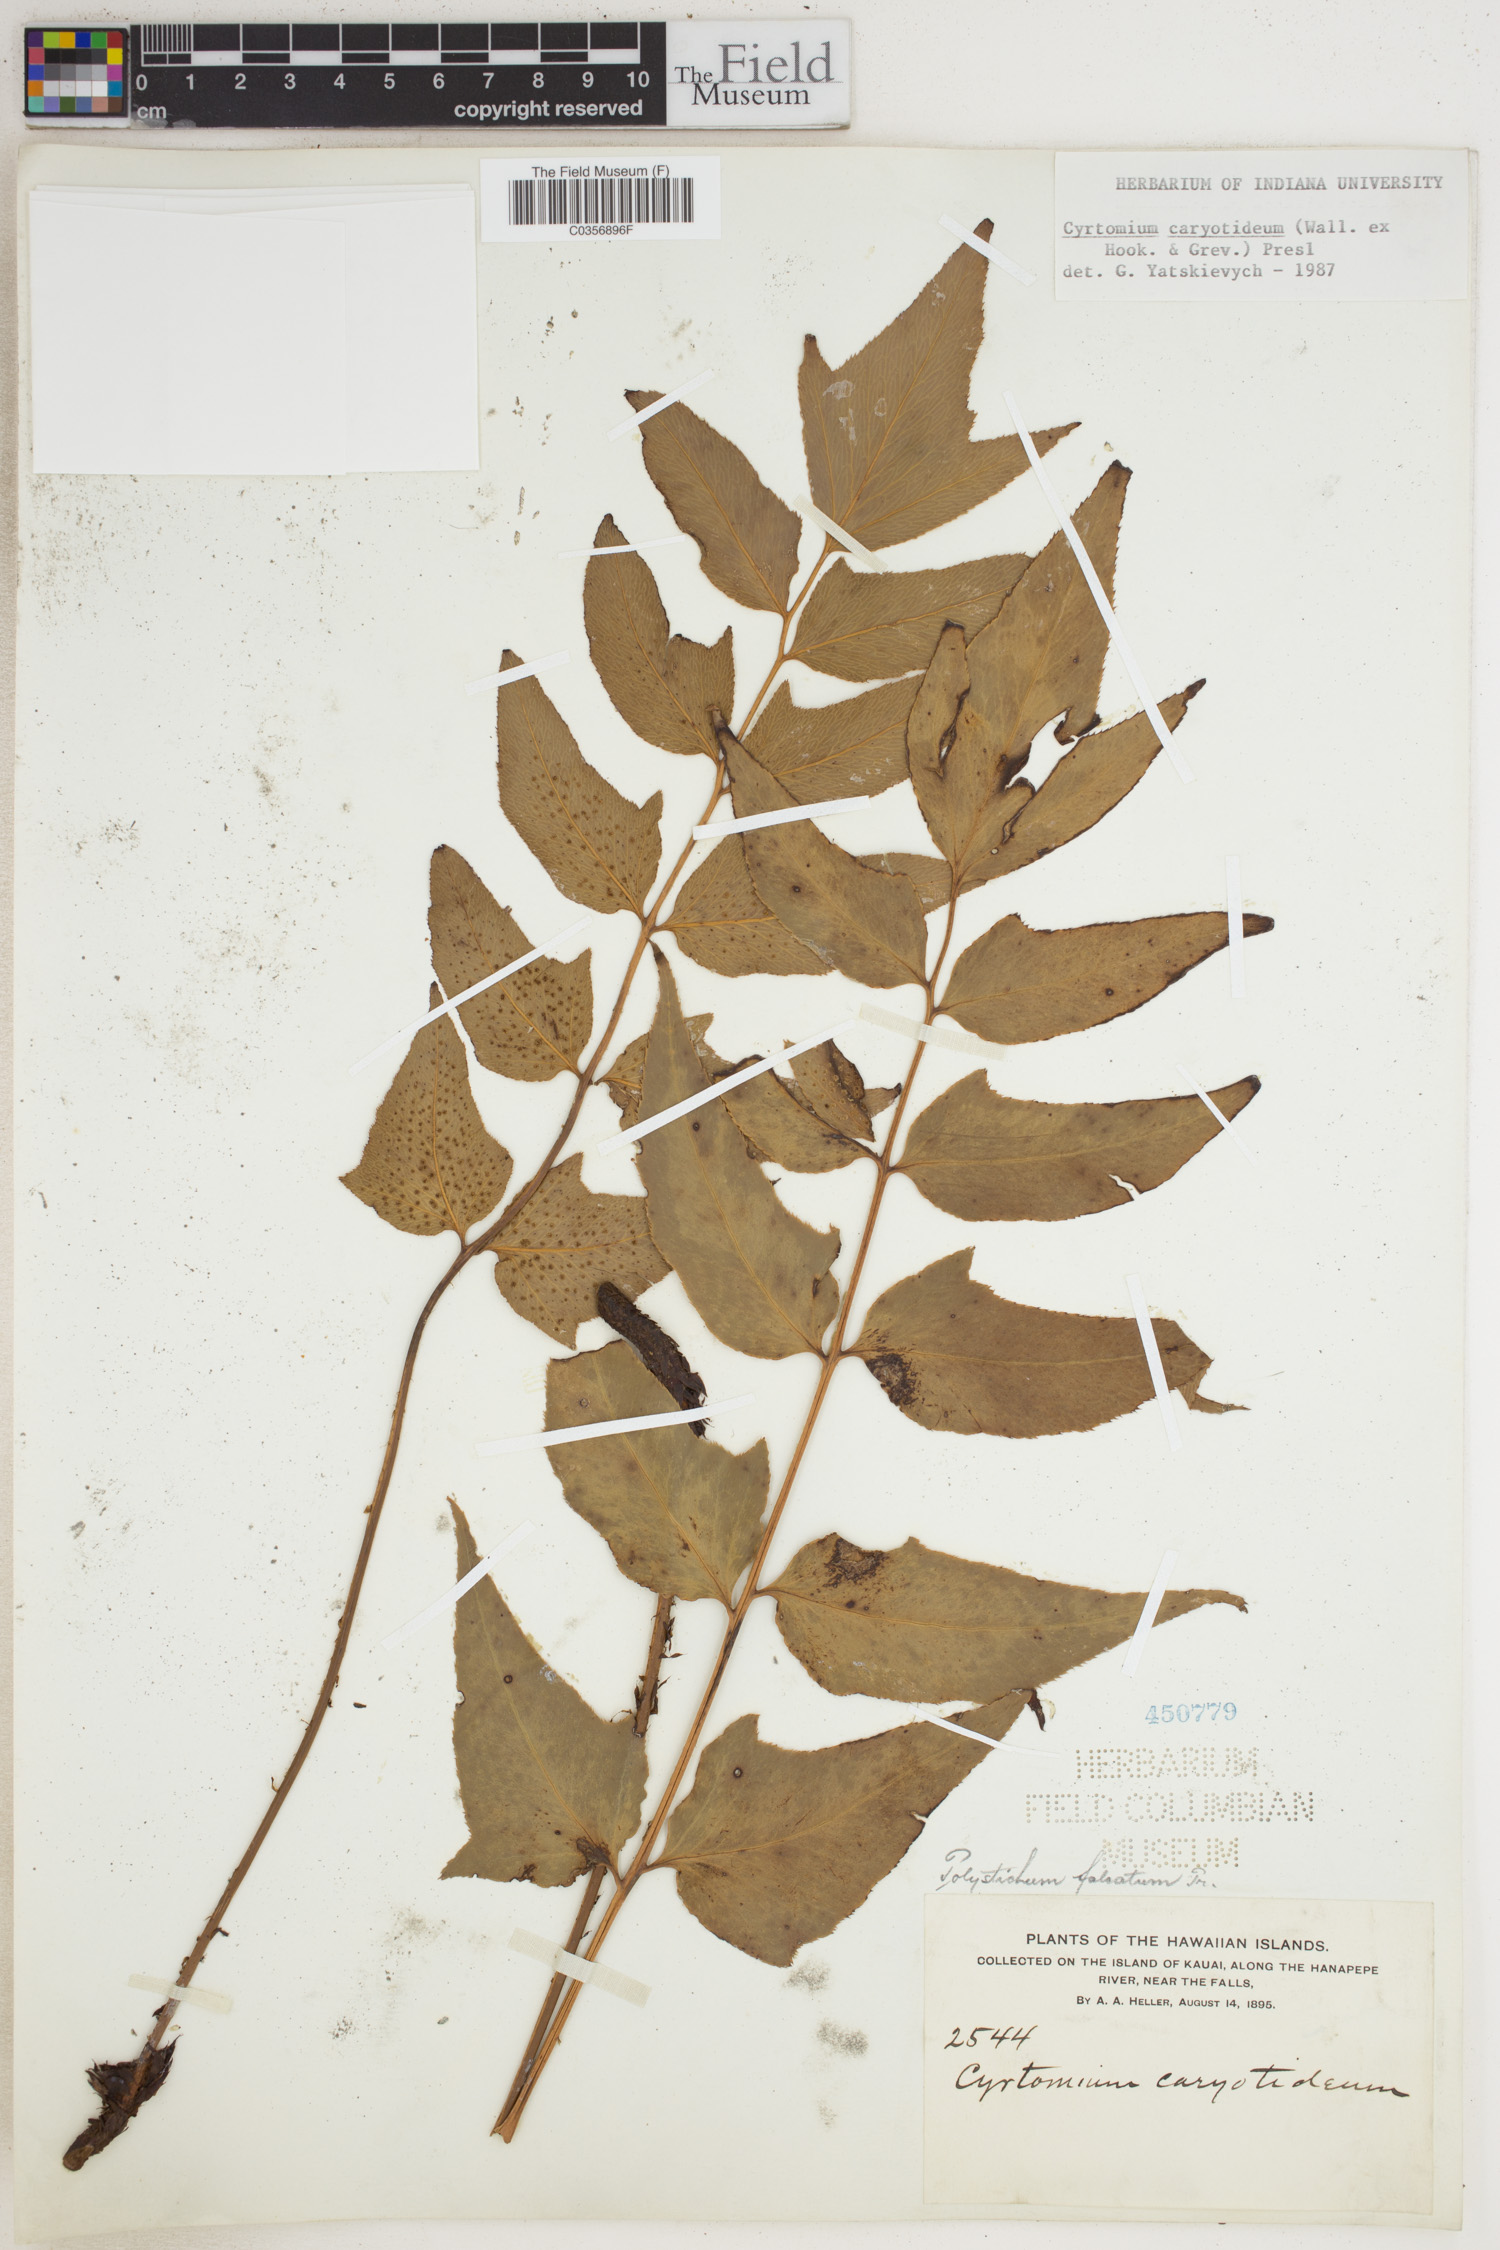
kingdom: Plantae
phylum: Tracheophyta
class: Polypodiopsida
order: Polypodiales
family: Dryopteridaceae
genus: Cyrtomium
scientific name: Cyrtomium caryotideum
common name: Asiatic holly fern
